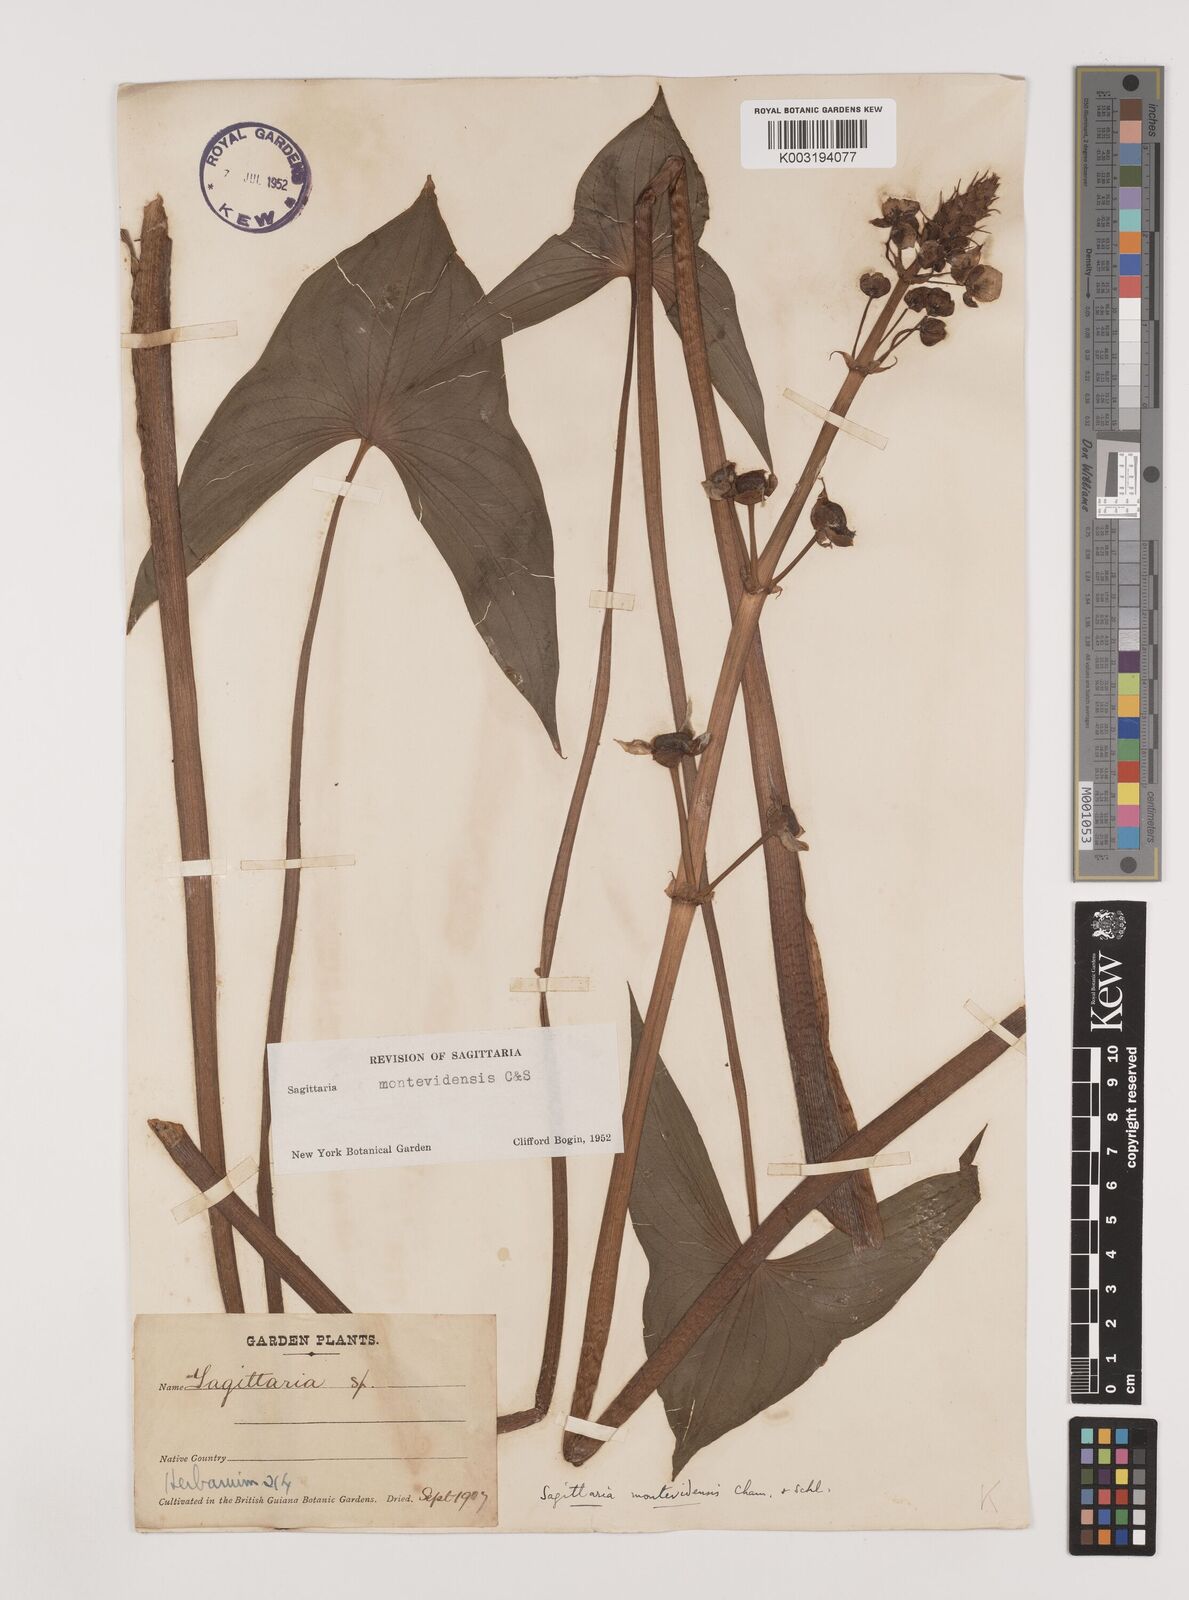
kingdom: Plantae
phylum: Tracheophyta
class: Liliopsida
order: Alismatales
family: Alismataceae
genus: Sagittaria
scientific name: Sagittaria montevidensis
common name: Giant arrowhead
